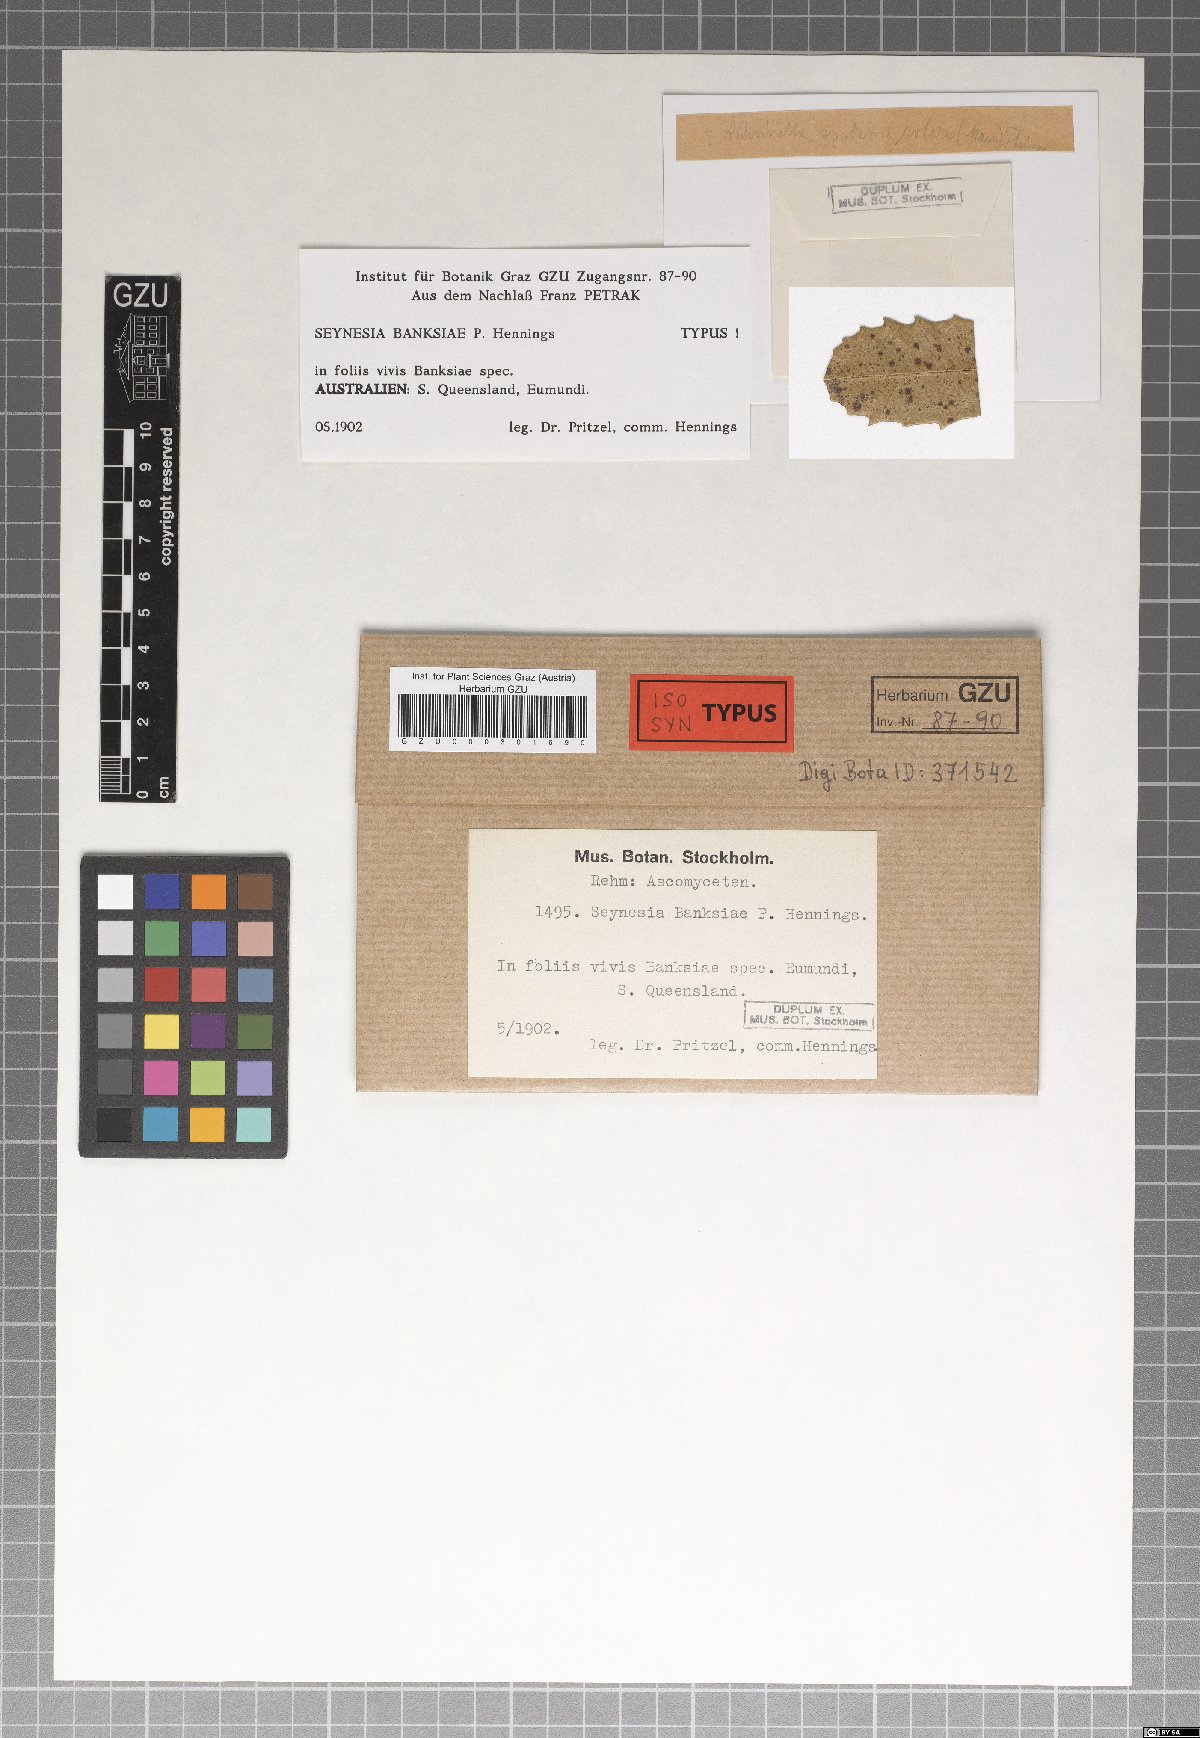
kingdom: Fungi
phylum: Ascomycota
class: Sordariomycetes
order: Xylariales
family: Cainiaceae
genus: Seynesia
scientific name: Seynesia banksiae
